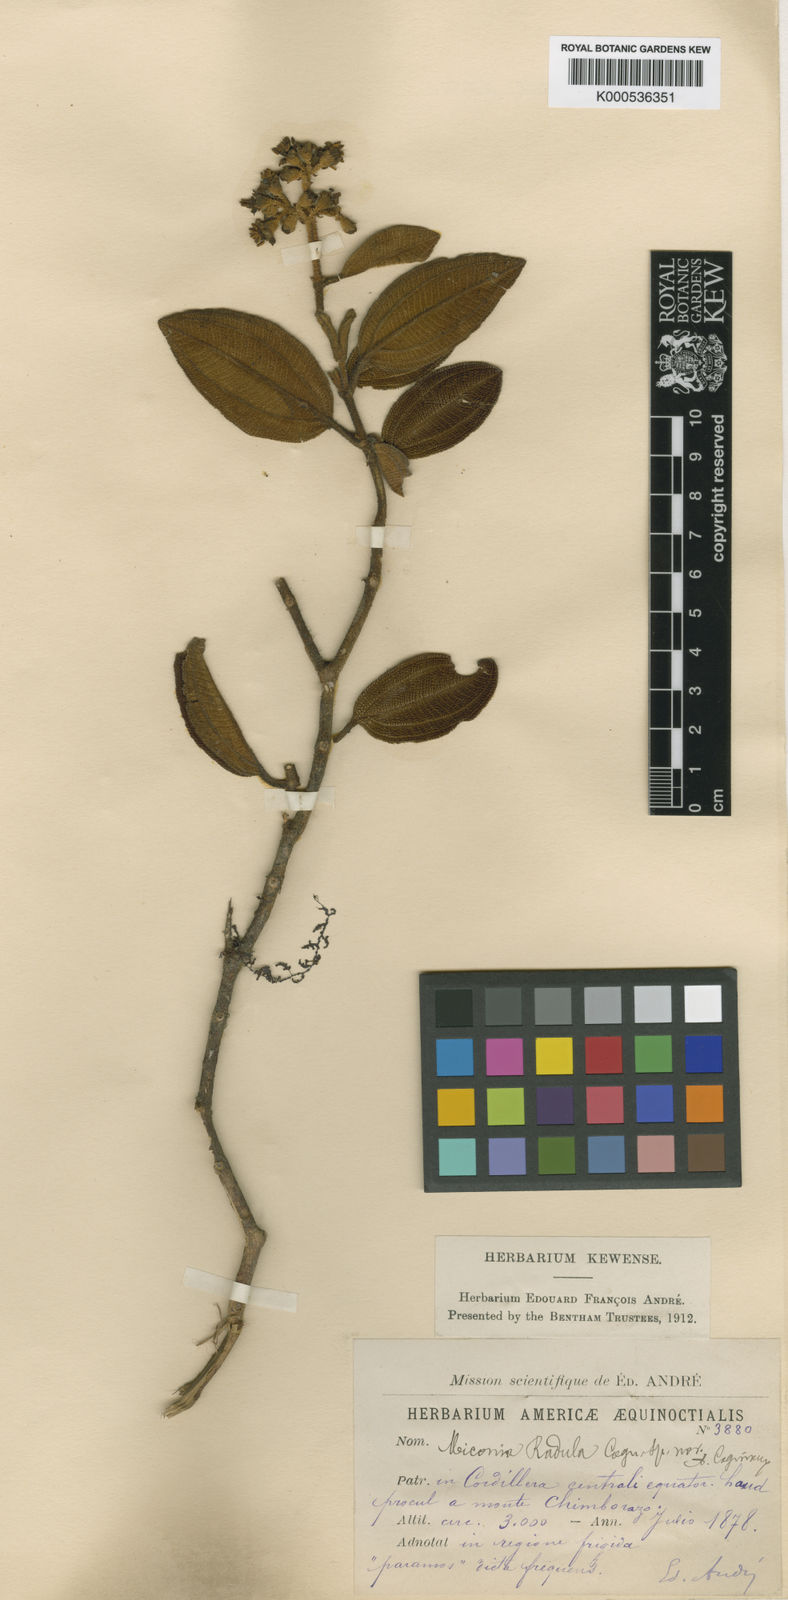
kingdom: Plantae
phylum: Tracheophyta
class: Magnoliopsida
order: Myrtales
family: Melastomataceae
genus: Miconia
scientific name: Miconia radula
